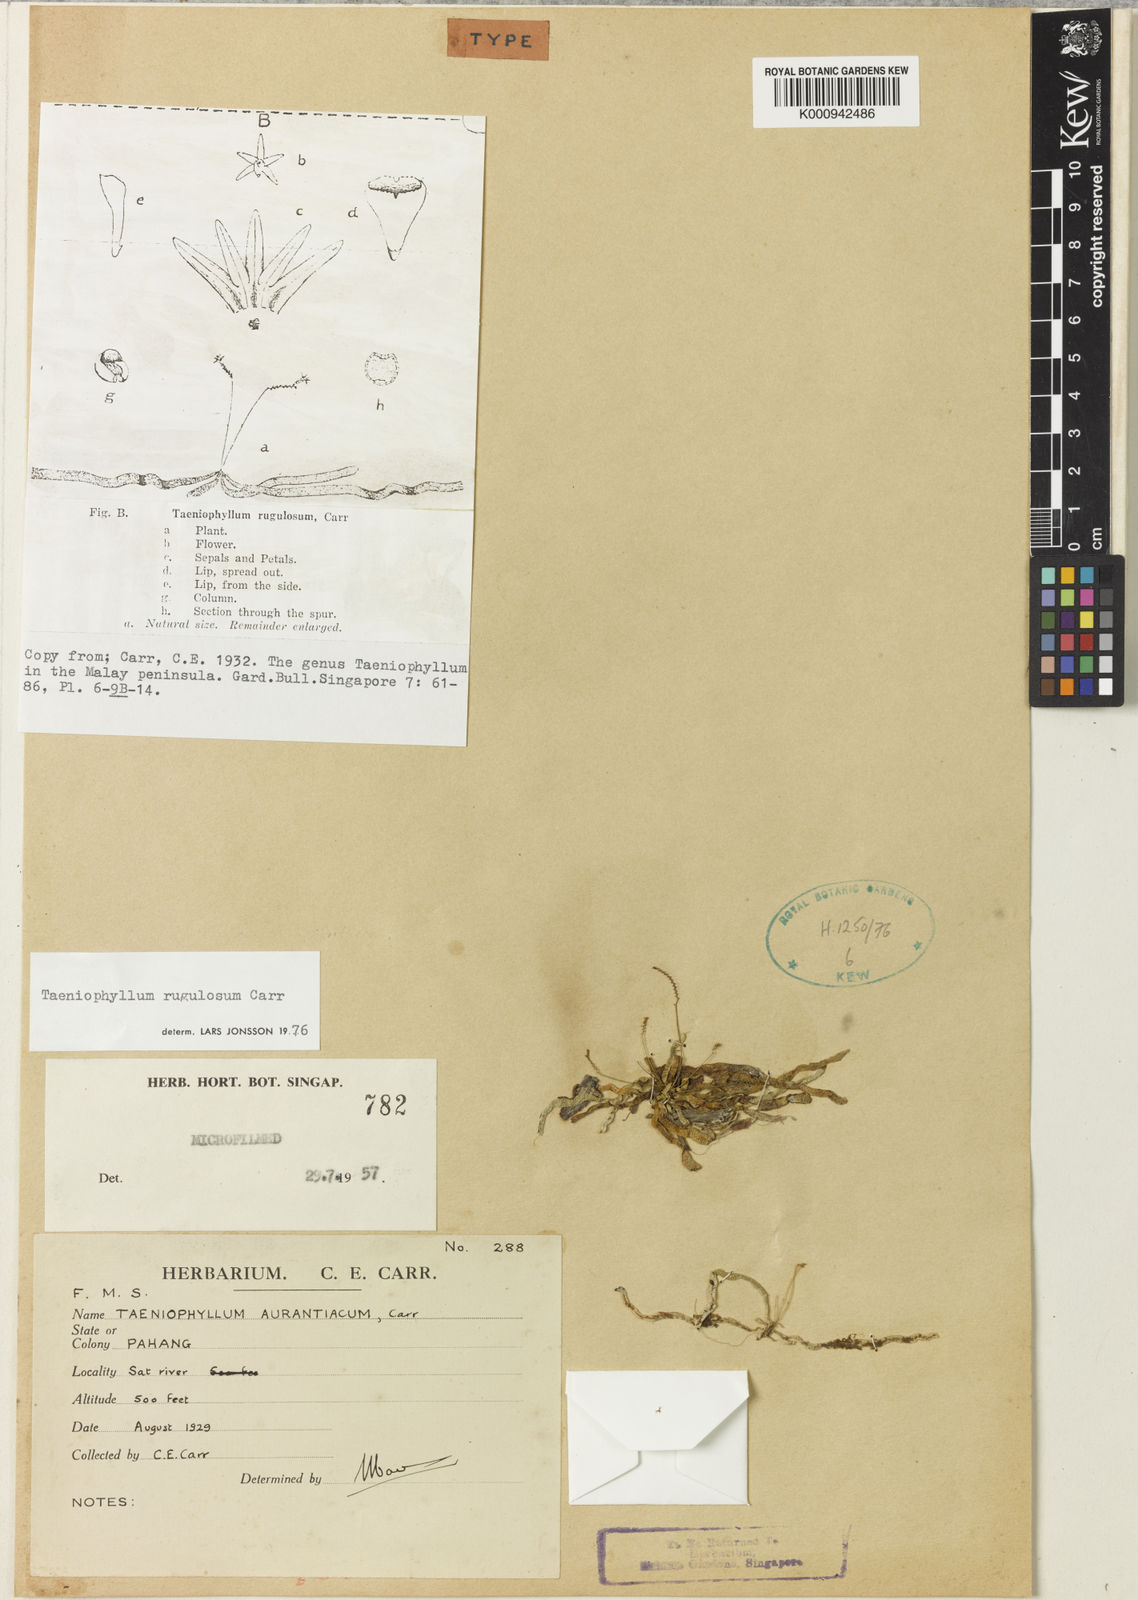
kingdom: Plantae
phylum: Tracheophyta
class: Liliopsida
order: Asparagales
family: Orchidaceae
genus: Taeniophyllum
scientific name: Taeniophyllum rugulosum
